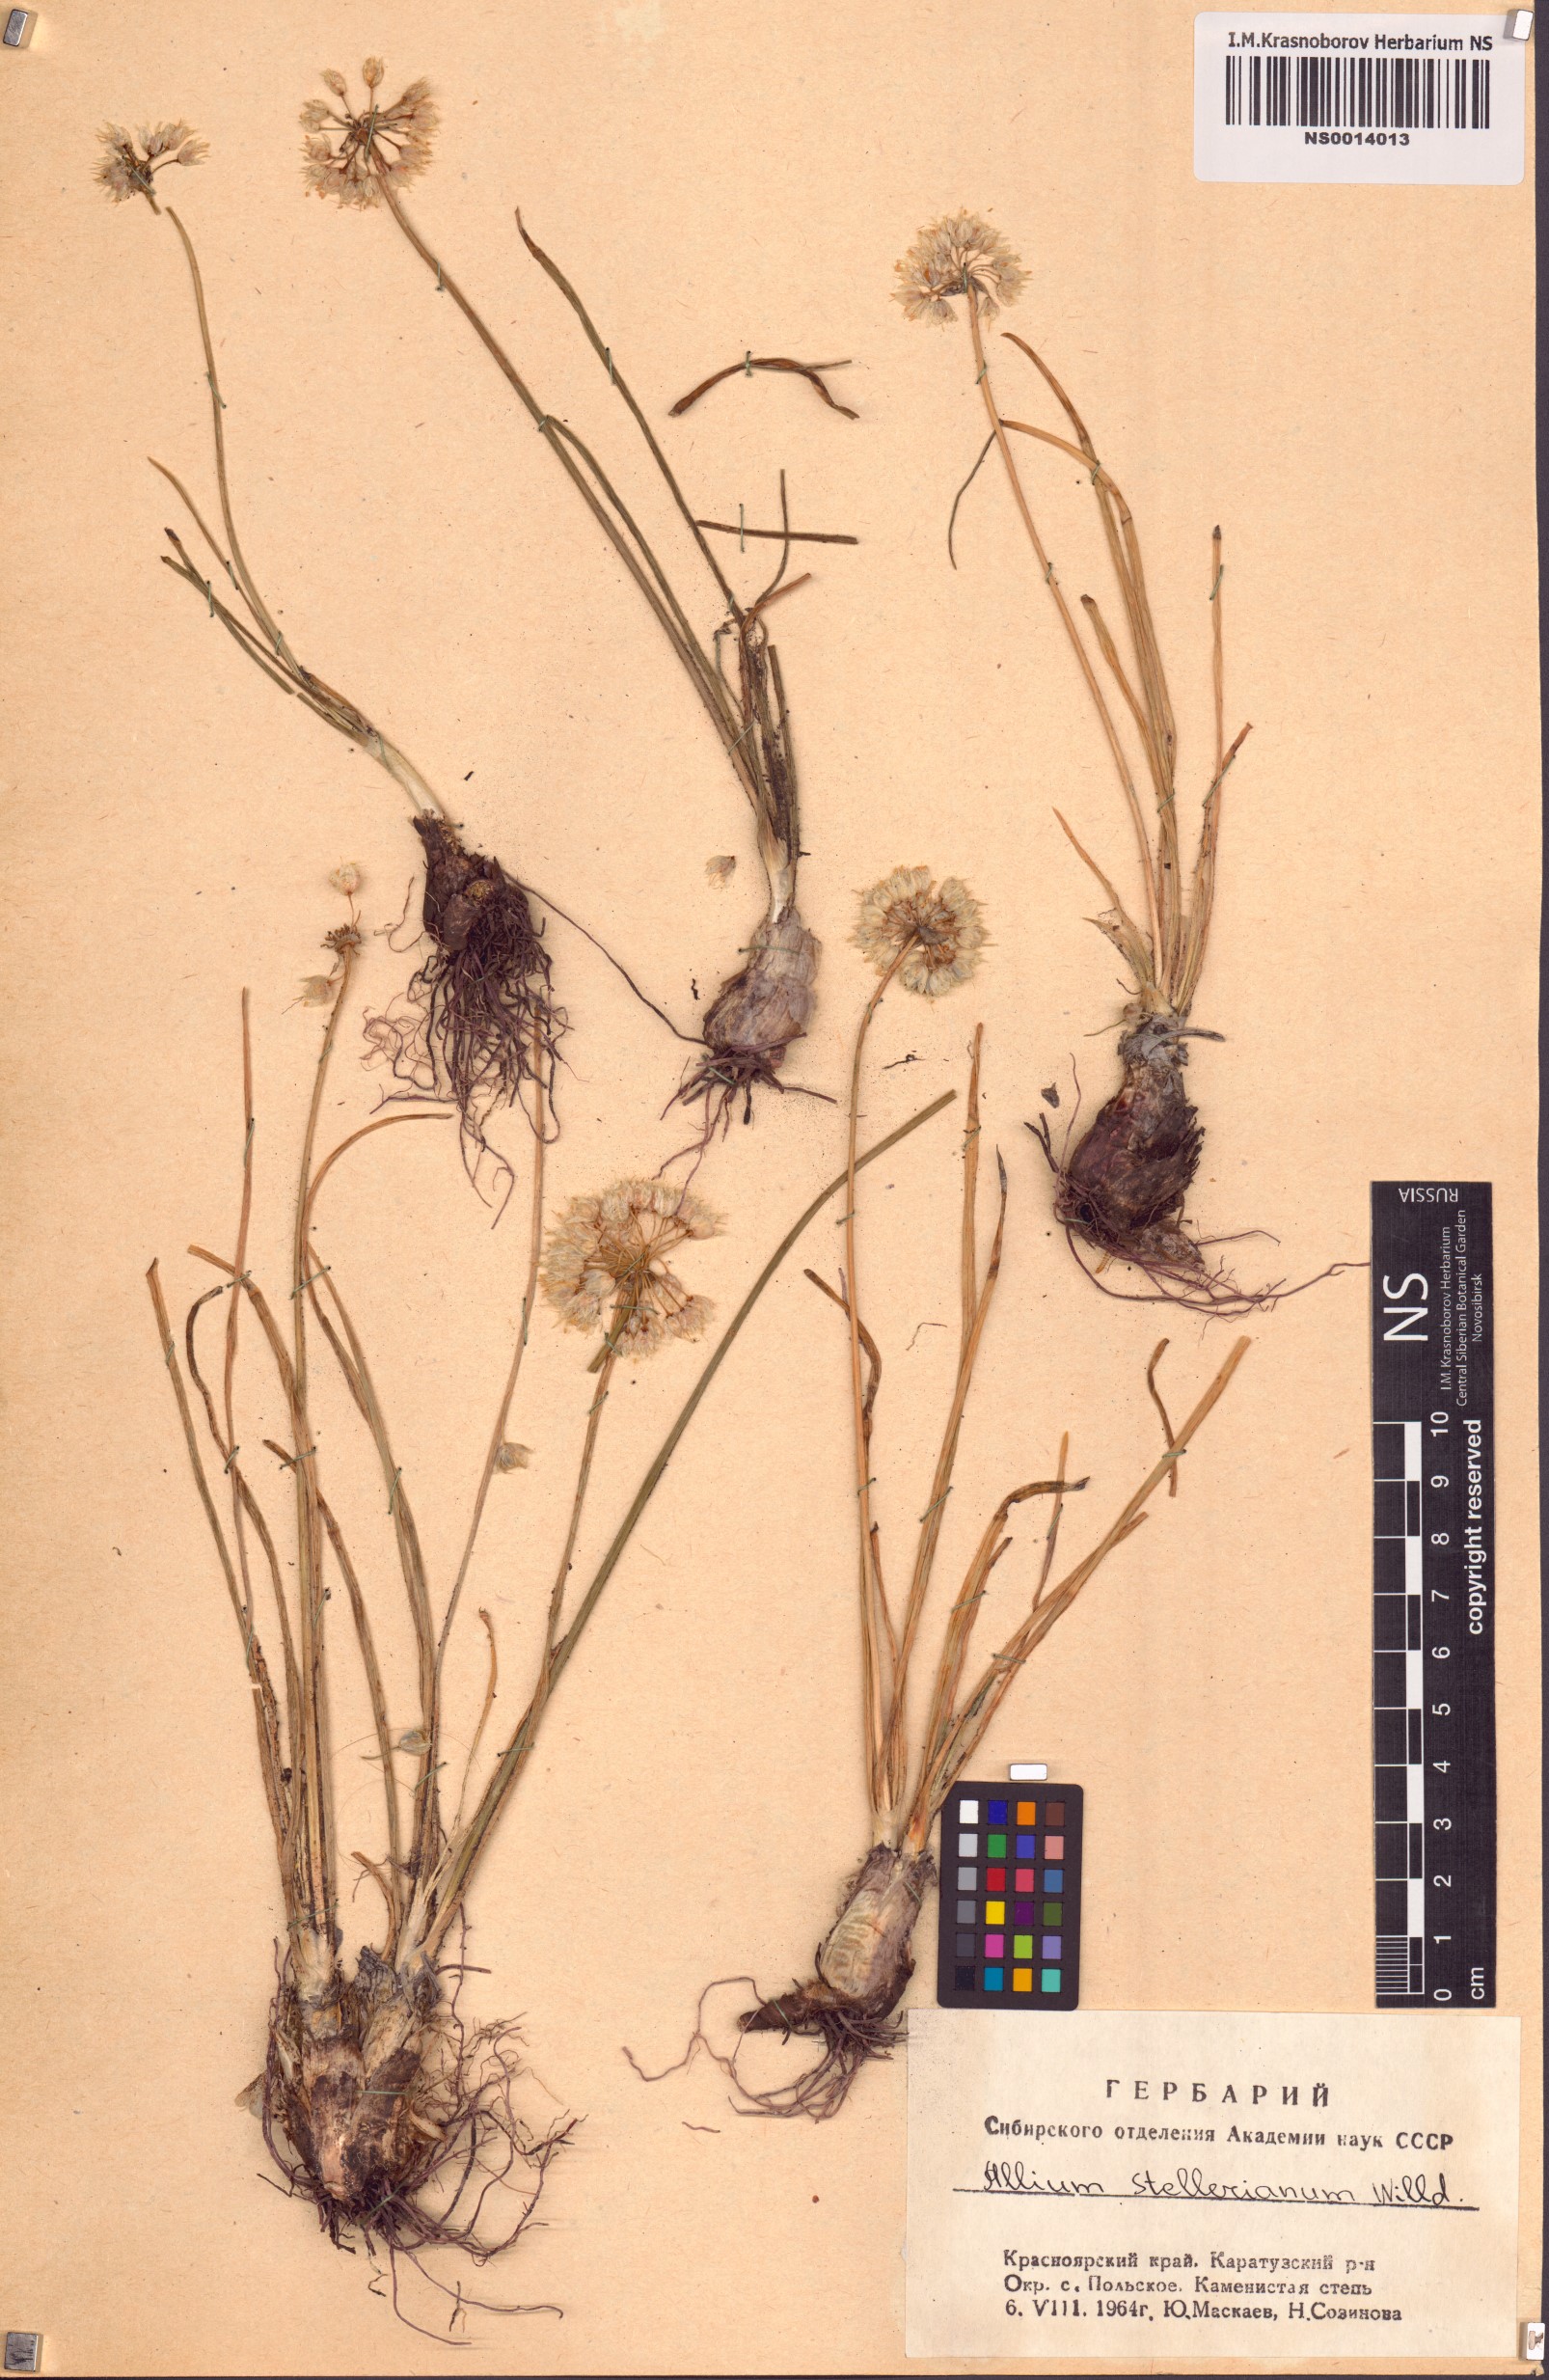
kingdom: Plantae
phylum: Tracheophyta
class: Liliopsida
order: Asparagales
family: Amaryllidaceae
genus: Allium
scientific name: Allium stellerianum
